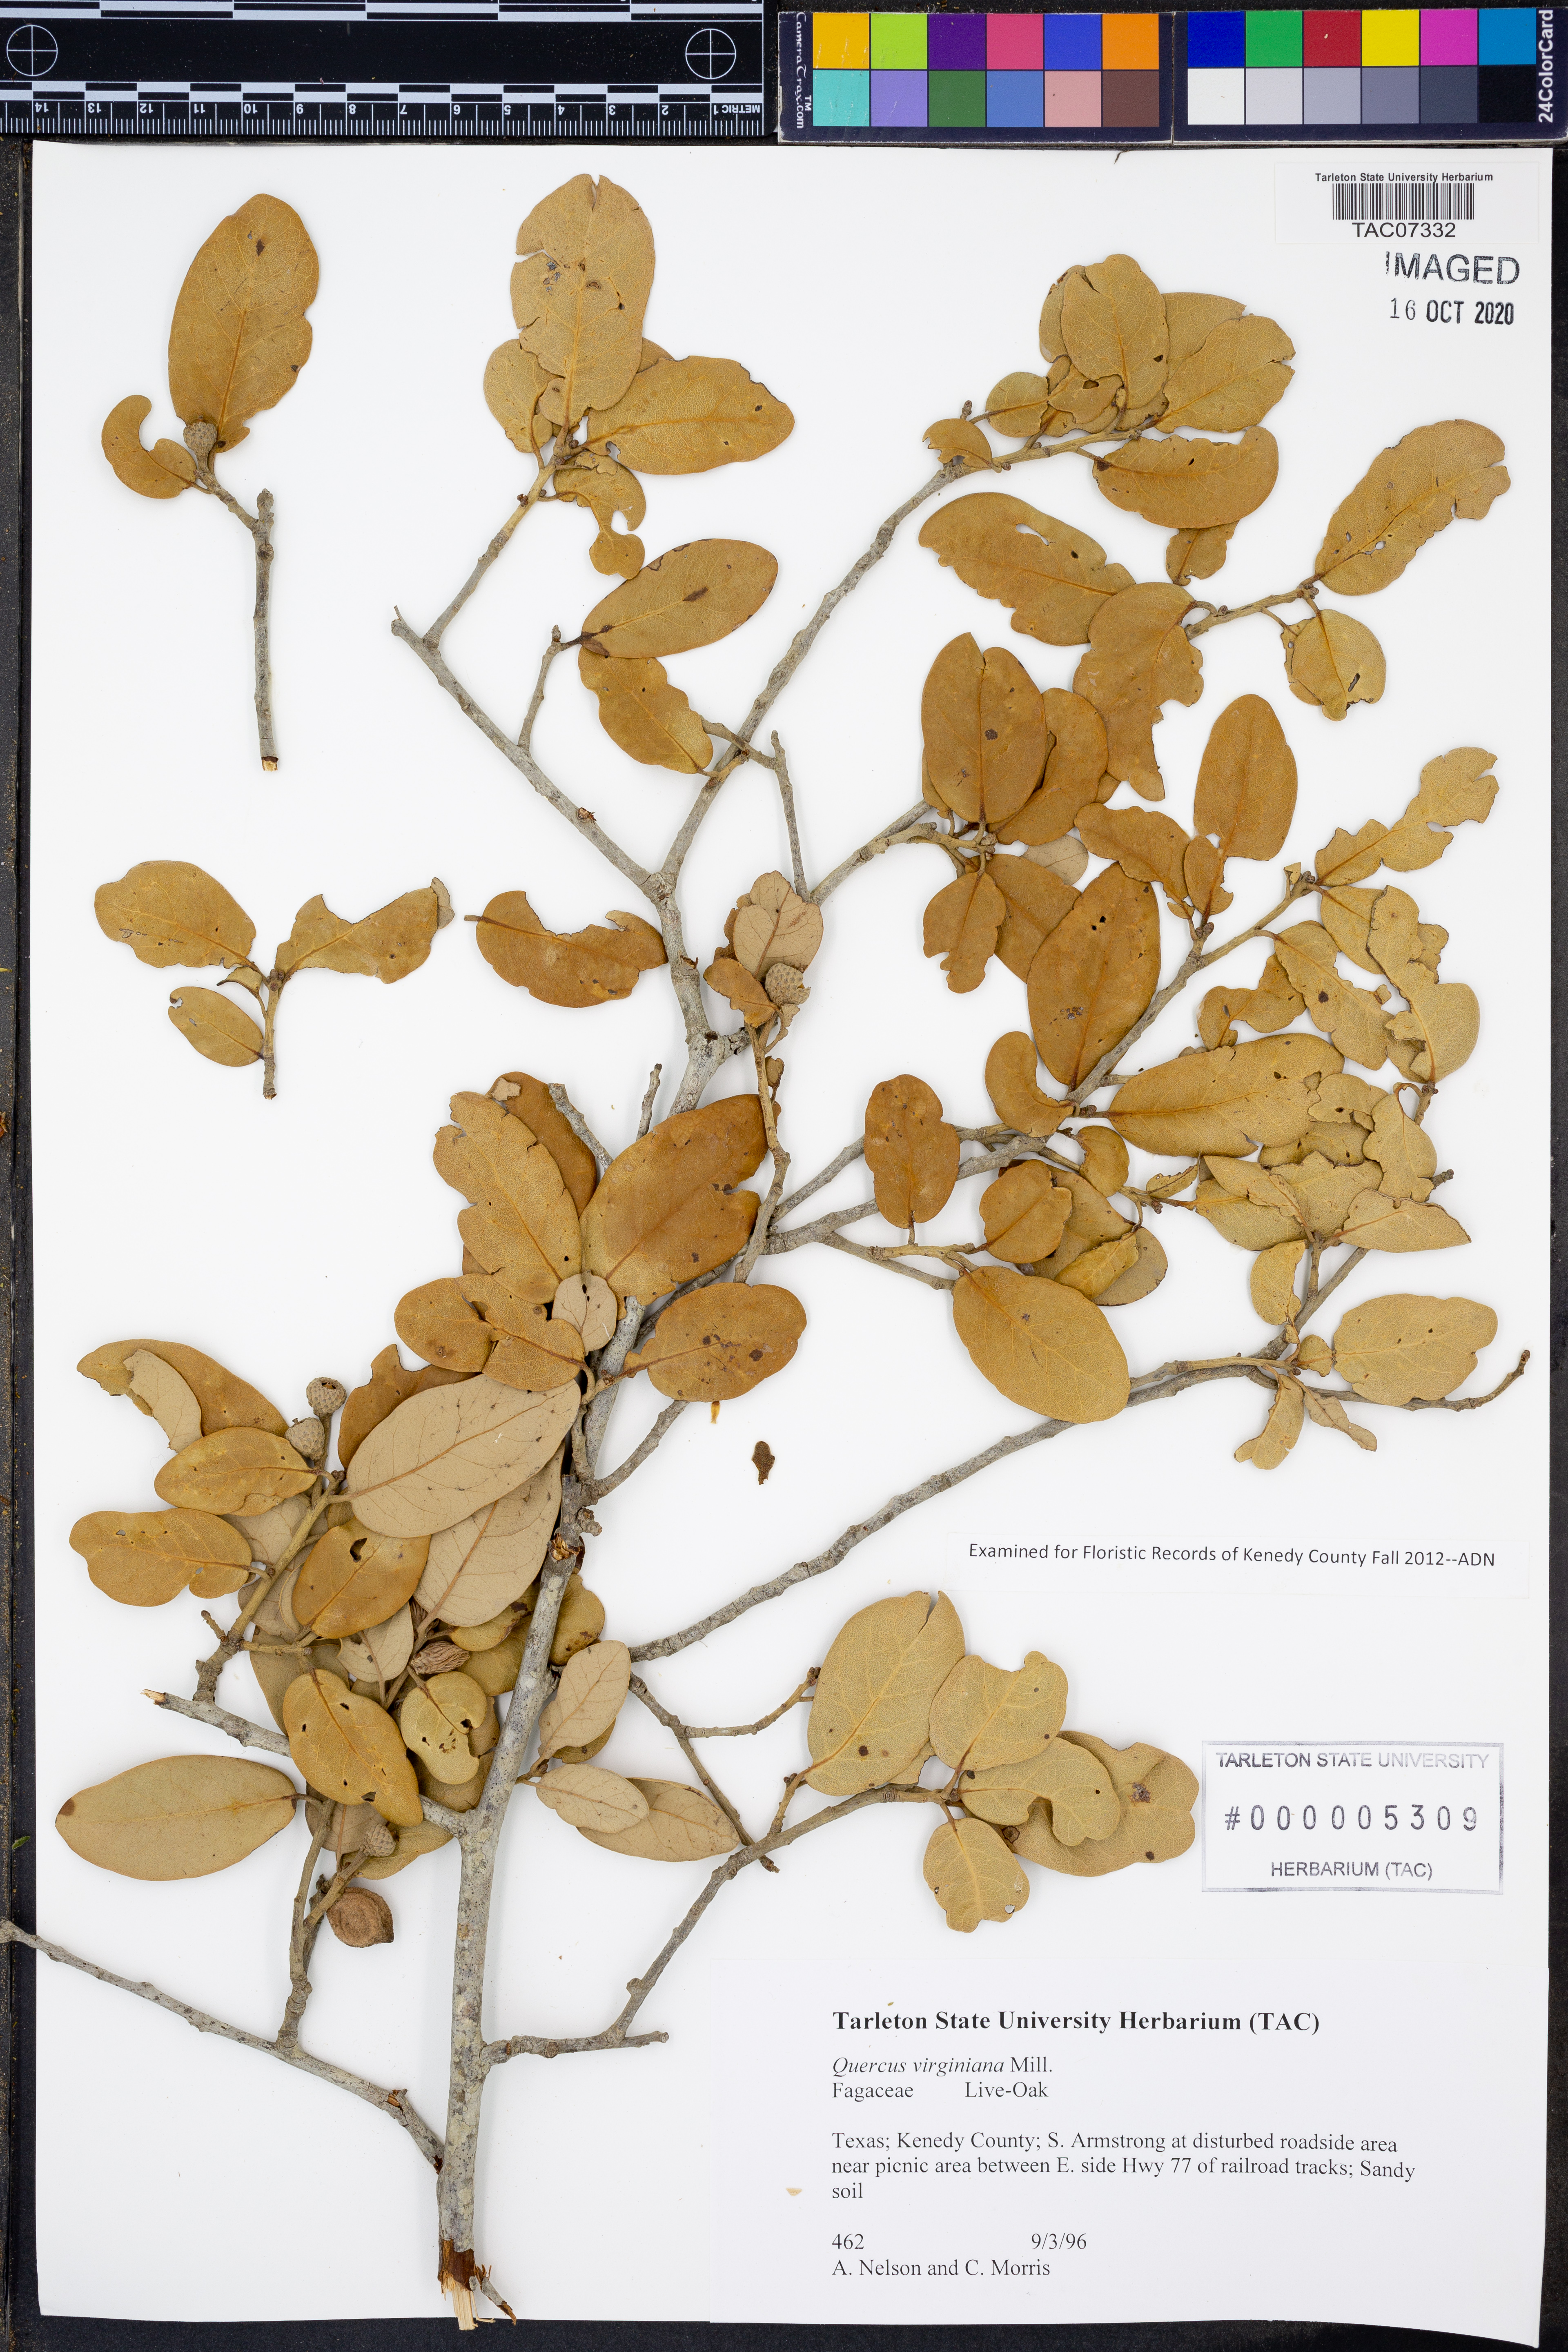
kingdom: Plantae
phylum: Tracheophyta
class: Magnoliopsida
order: Fagales
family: Fagaceae
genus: Quercus
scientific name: Quercus virginiana
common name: Southern live oak
